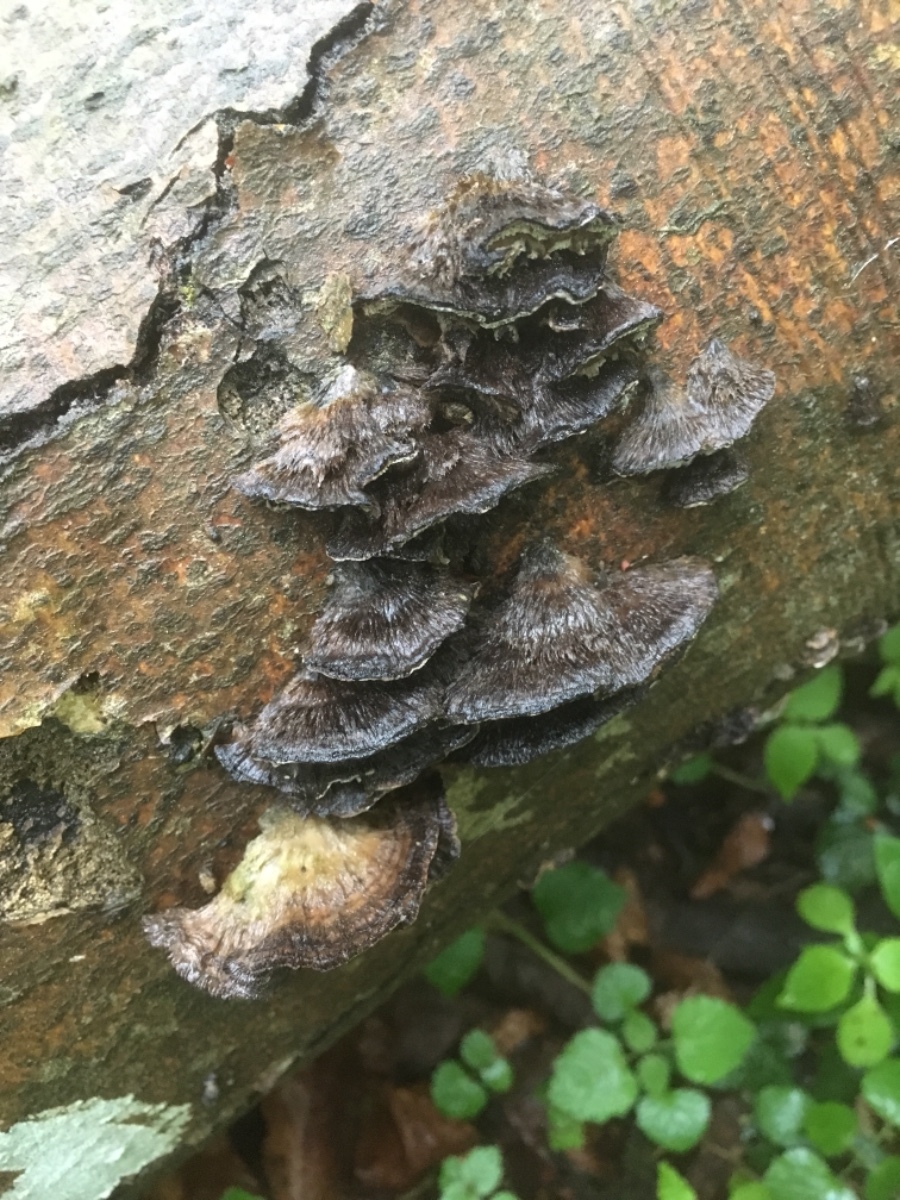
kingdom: Fungi
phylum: Basidiomycota
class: Agaricomycetes
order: Polyporales
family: Phanerochaetaceae
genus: Bjerkandera
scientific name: Bjerkandera adusta
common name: sveden sodporesvamp
